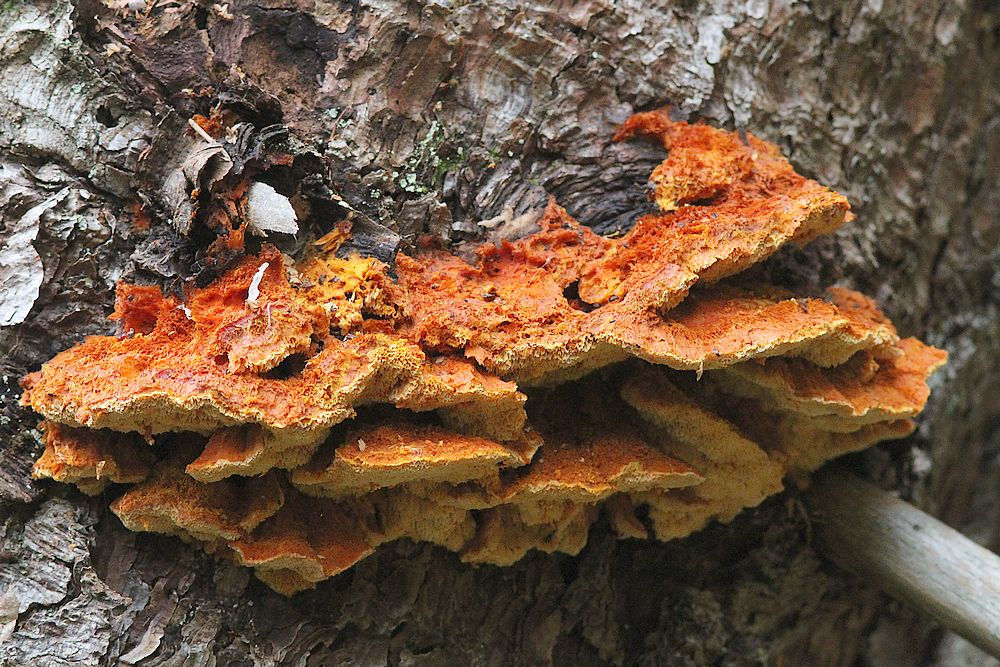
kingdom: Fungi
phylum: Basidiomycota
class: Agaricomycetes
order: Polyporales
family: Pycnoporellaceae
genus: Pycnoporellus
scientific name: Pycnoporellus fulgens
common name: flammeporesvamp
